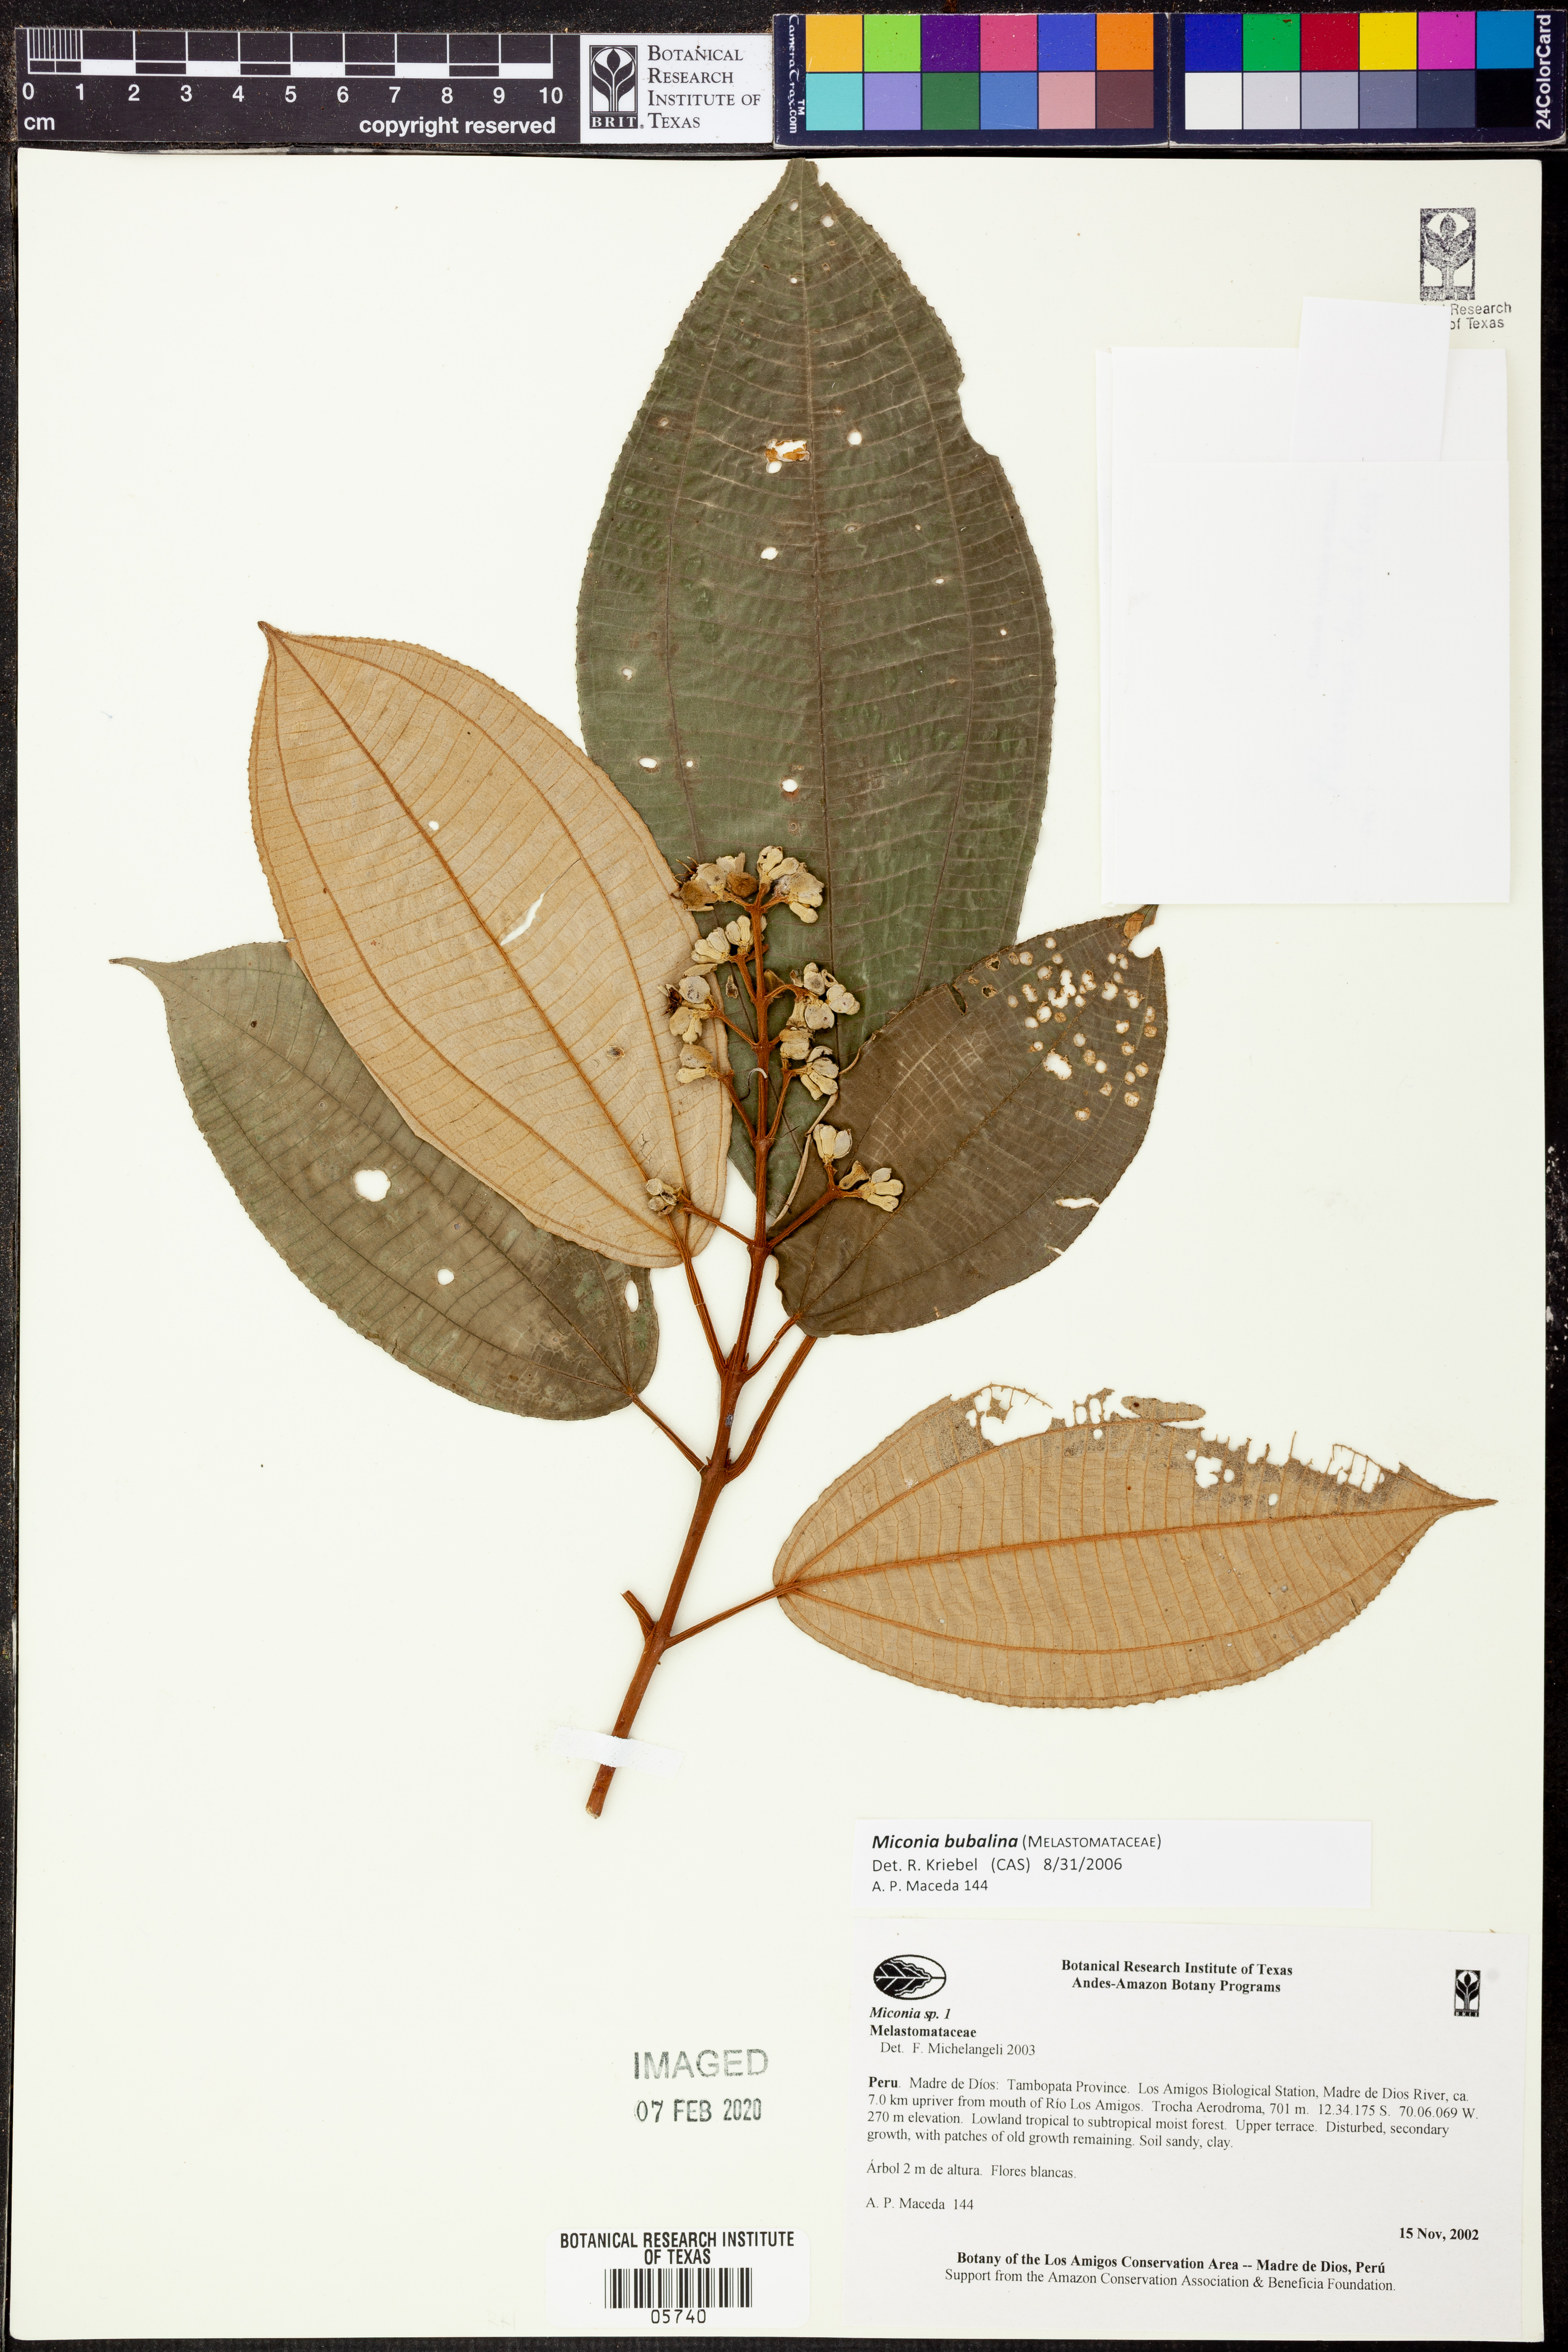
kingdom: Plantae
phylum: Tracheophyta
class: Magnoliopsida
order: Myrtales
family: Melastomataceae
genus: Miconia
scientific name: Miconia bubalina
